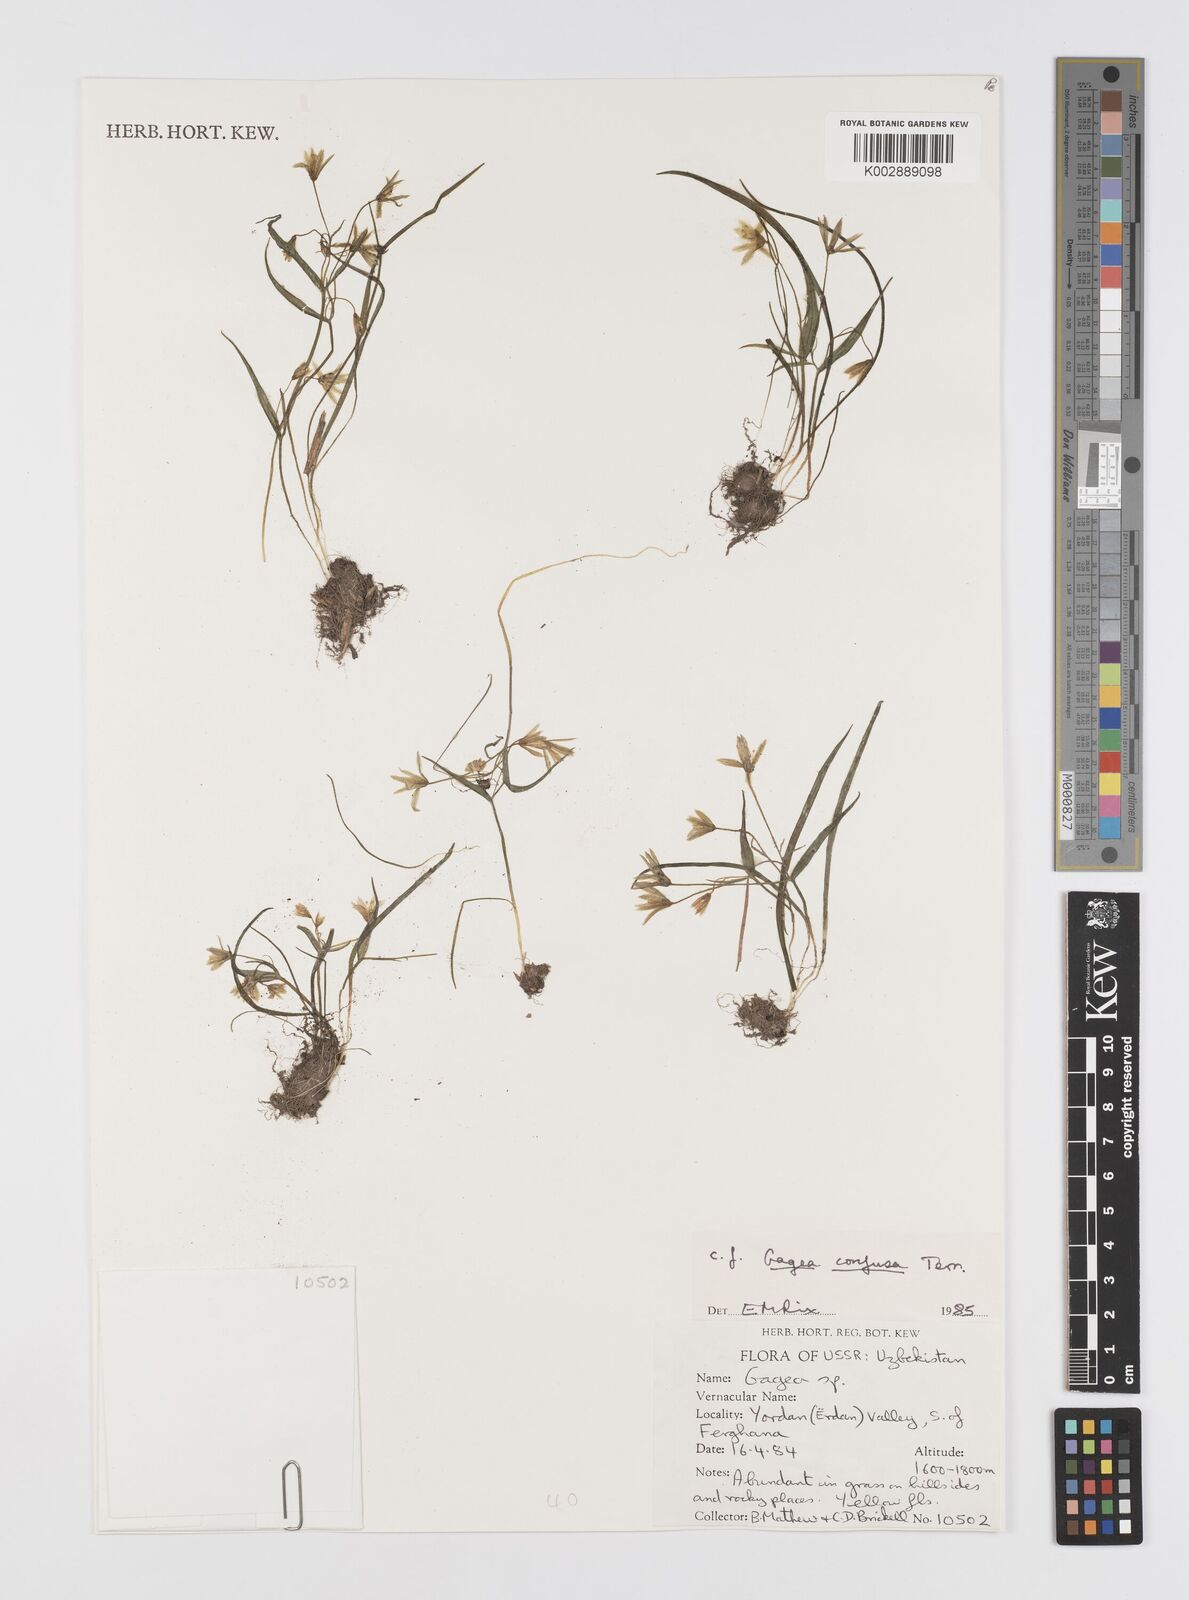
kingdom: Plantae
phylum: Tracheophyta
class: Liliopsida
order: Liliales
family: Liliaceae
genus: Gagea
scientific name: Gagea confusa
